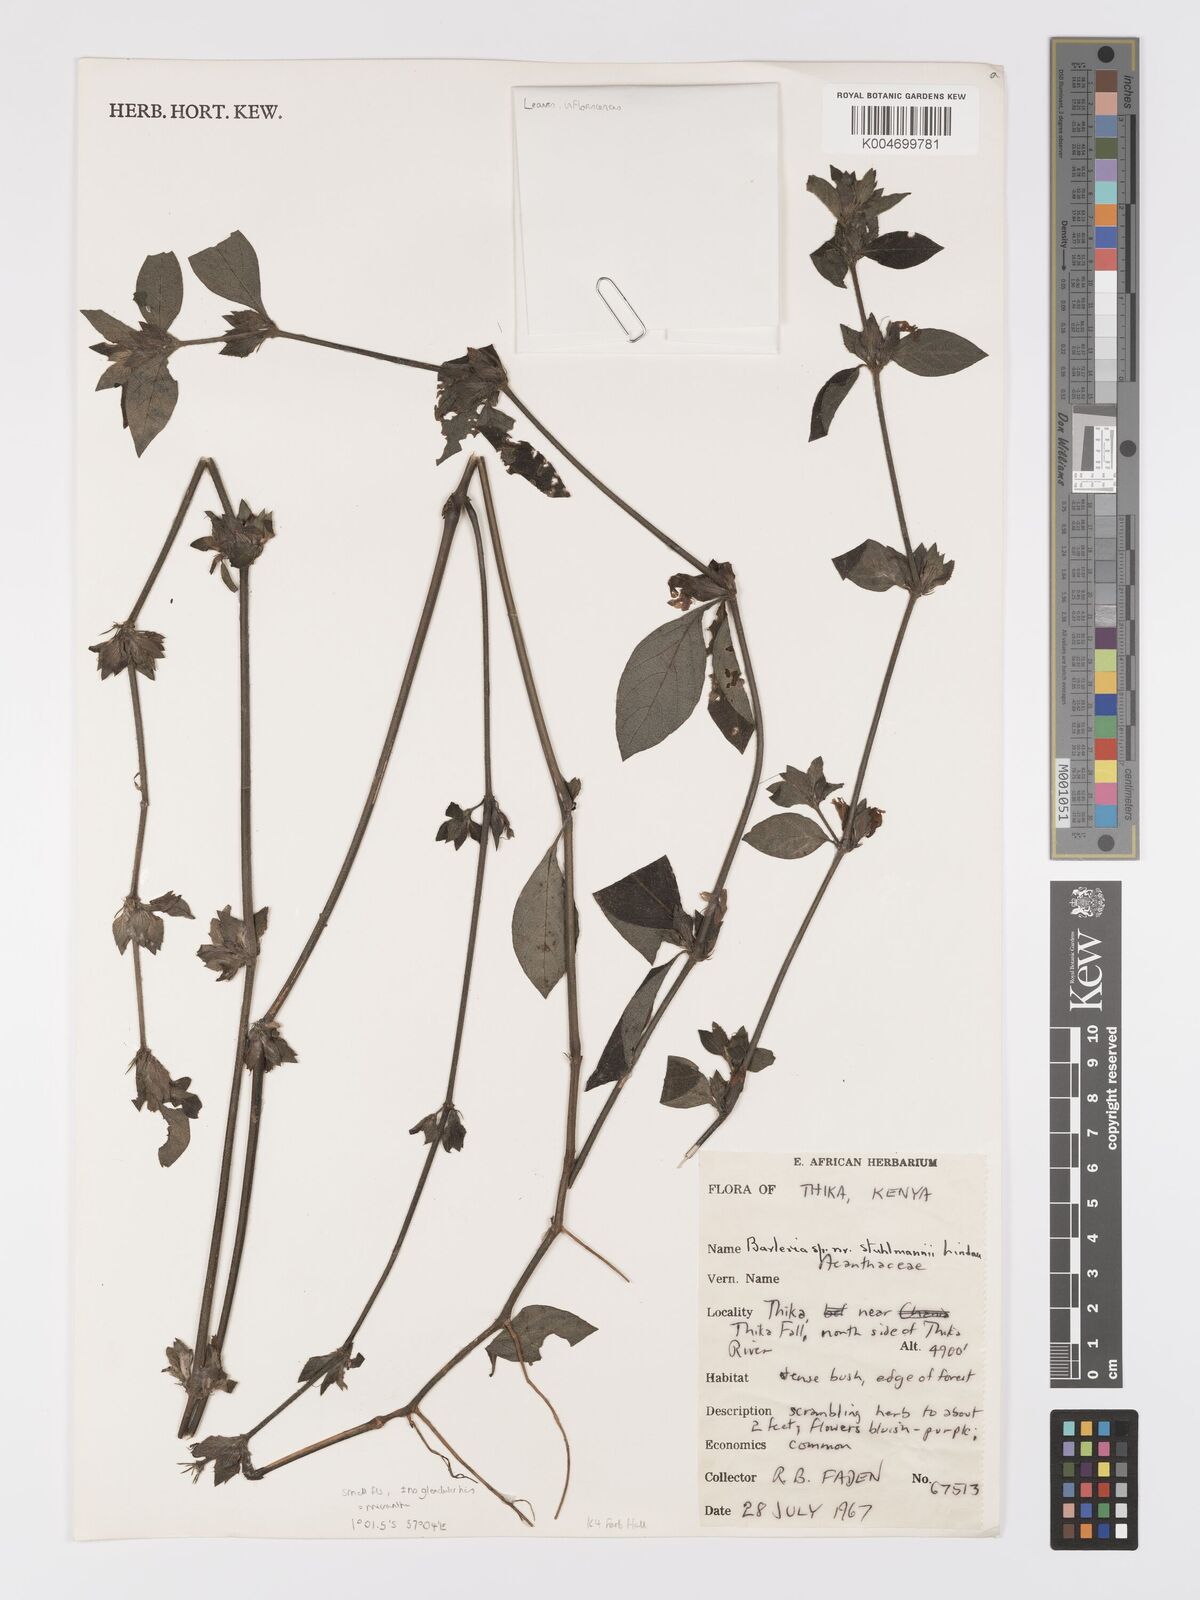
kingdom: Plantae
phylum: Tracheophyta
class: Magnoliopsida
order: Lamiales
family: Acanthaceae
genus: Barleria
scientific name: Barleria ventricosa
